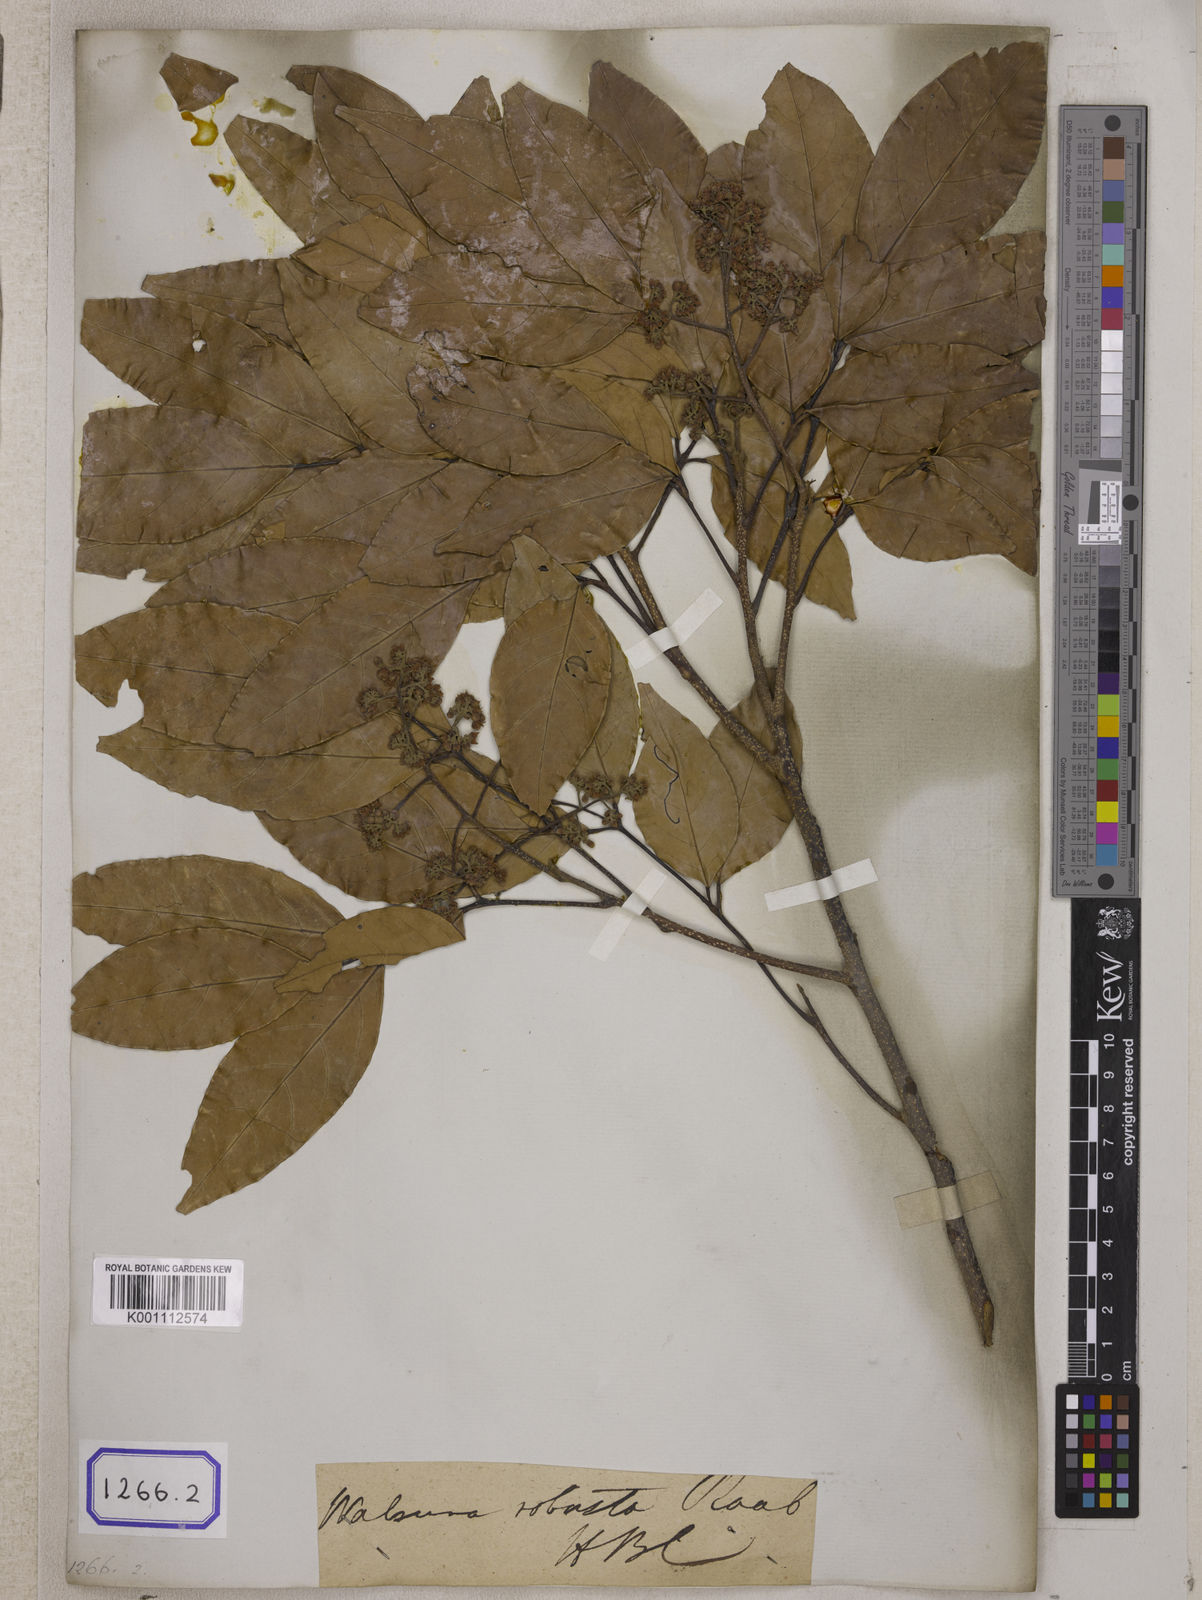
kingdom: Plantae
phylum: Tracheophyta
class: Magnoliopsida
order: Sapindales
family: Meliaceae
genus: Walsura
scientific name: Walsura robusta
